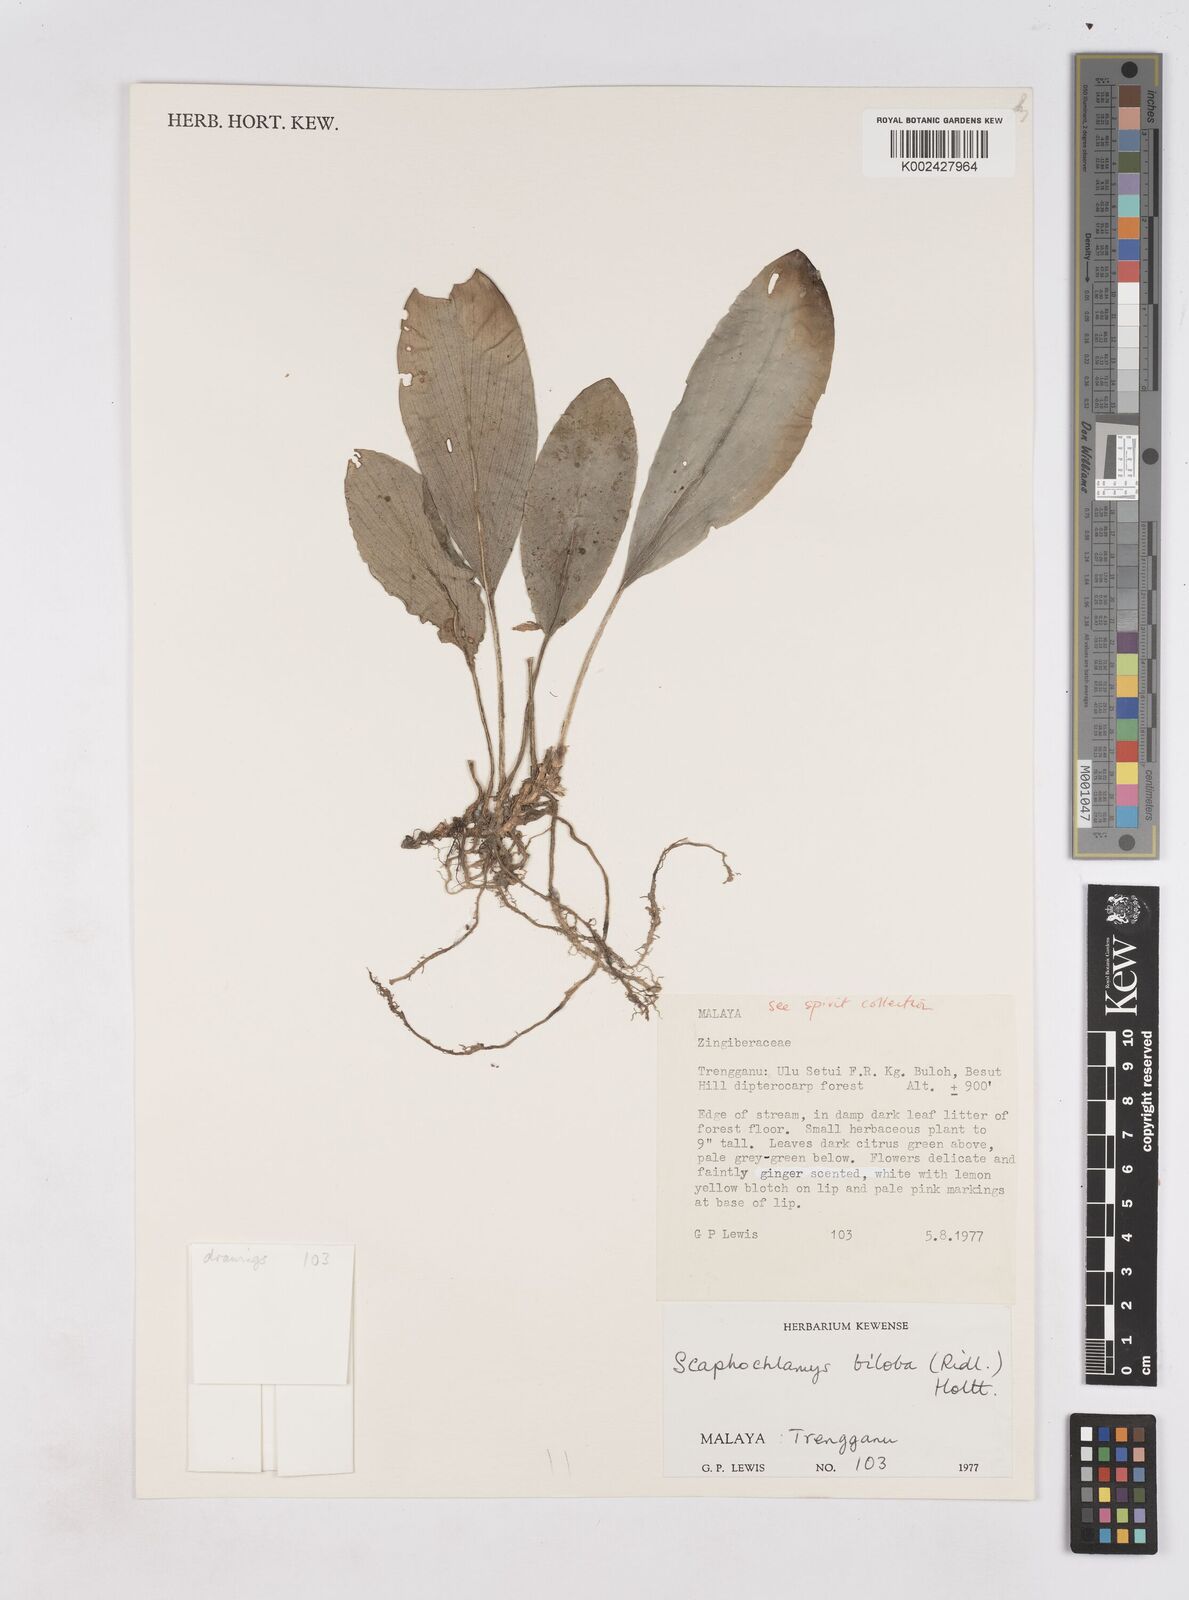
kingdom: Plantae
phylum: Tracheophyta
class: Liliopsida
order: Zingiberales
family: Zingiberaceae
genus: Scaphochlamys
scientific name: Scaphochlamys biloba
